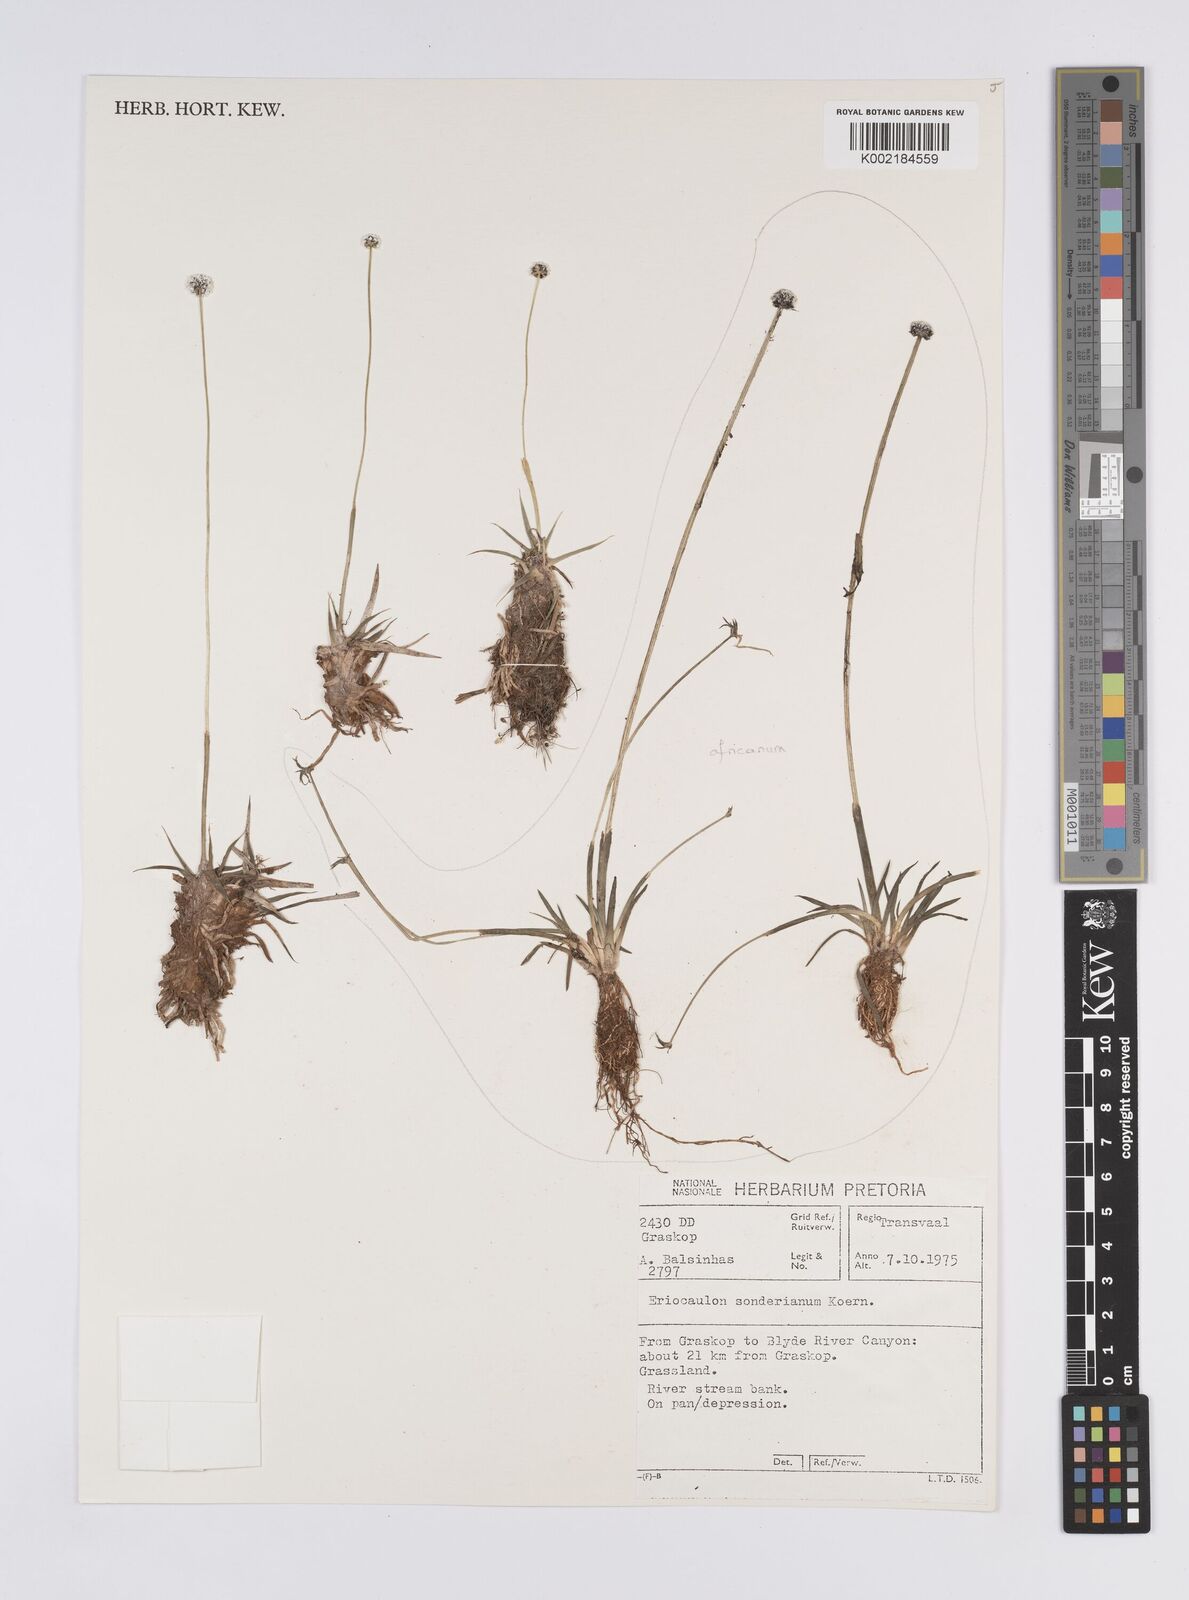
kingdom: Plantae
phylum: Tracheophyta
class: Liliopsida
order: Poales
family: Eriocaulaceae
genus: Eriocaulon
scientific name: Eriocaulon sonderianum
